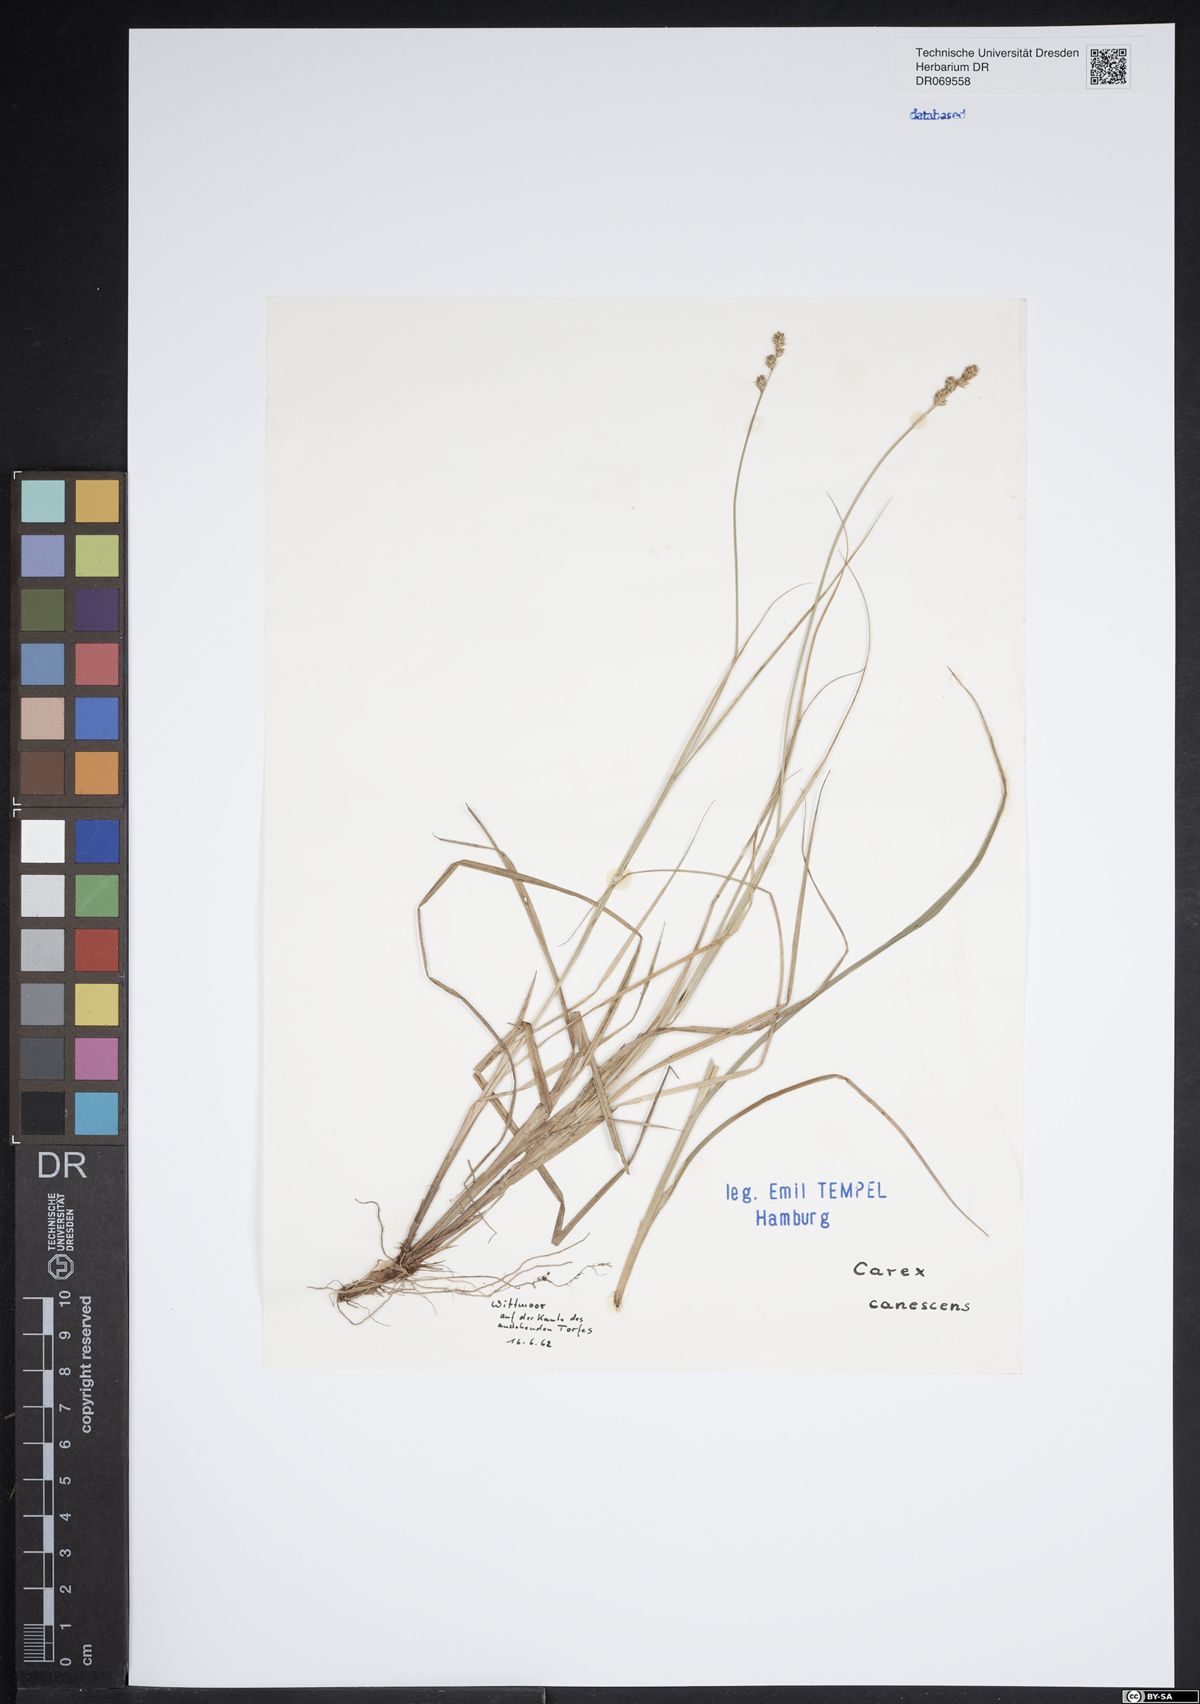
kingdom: Plantae
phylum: Tracheophyta
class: Liliopsida
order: Poales
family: Cyperaceae
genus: Carex
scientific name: Carex canescens
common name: White sedge
